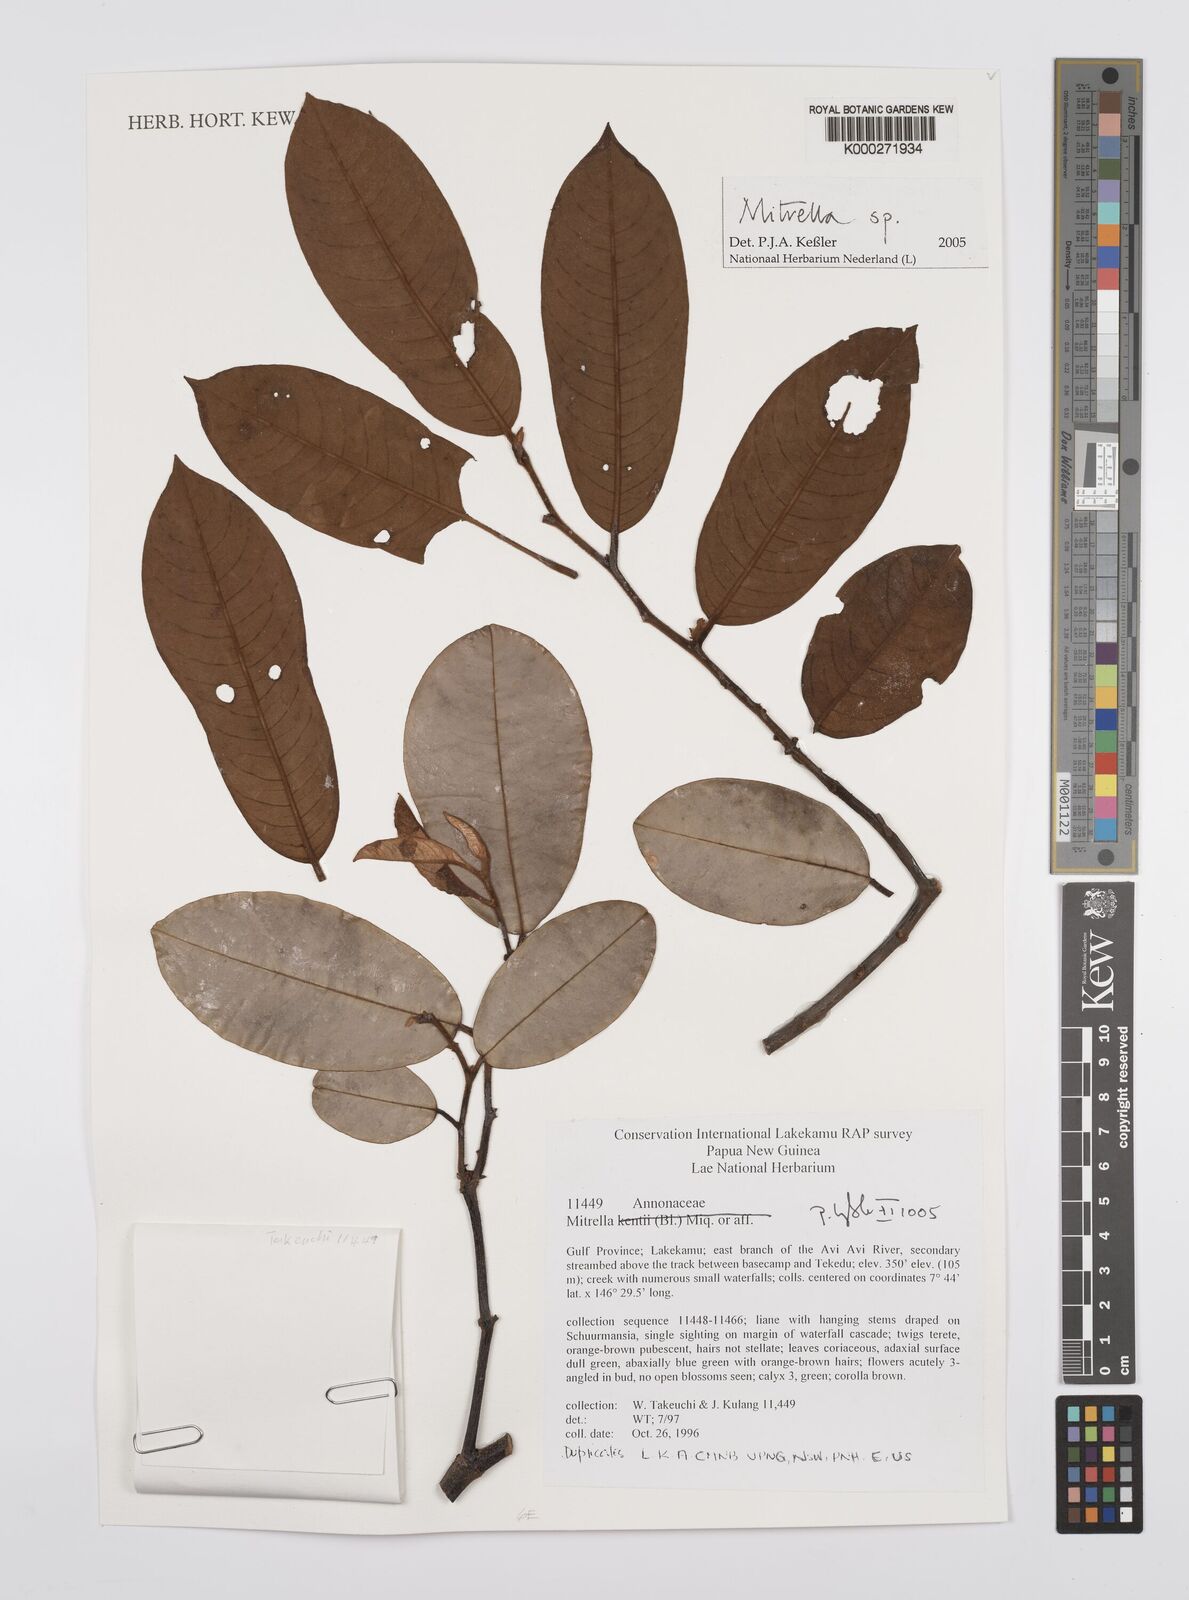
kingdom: Plantae
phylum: Tracheophyta
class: Magnoliopsida
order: Magnoliales
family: Annonaceae
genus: Mitrella
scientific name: Mitrella
